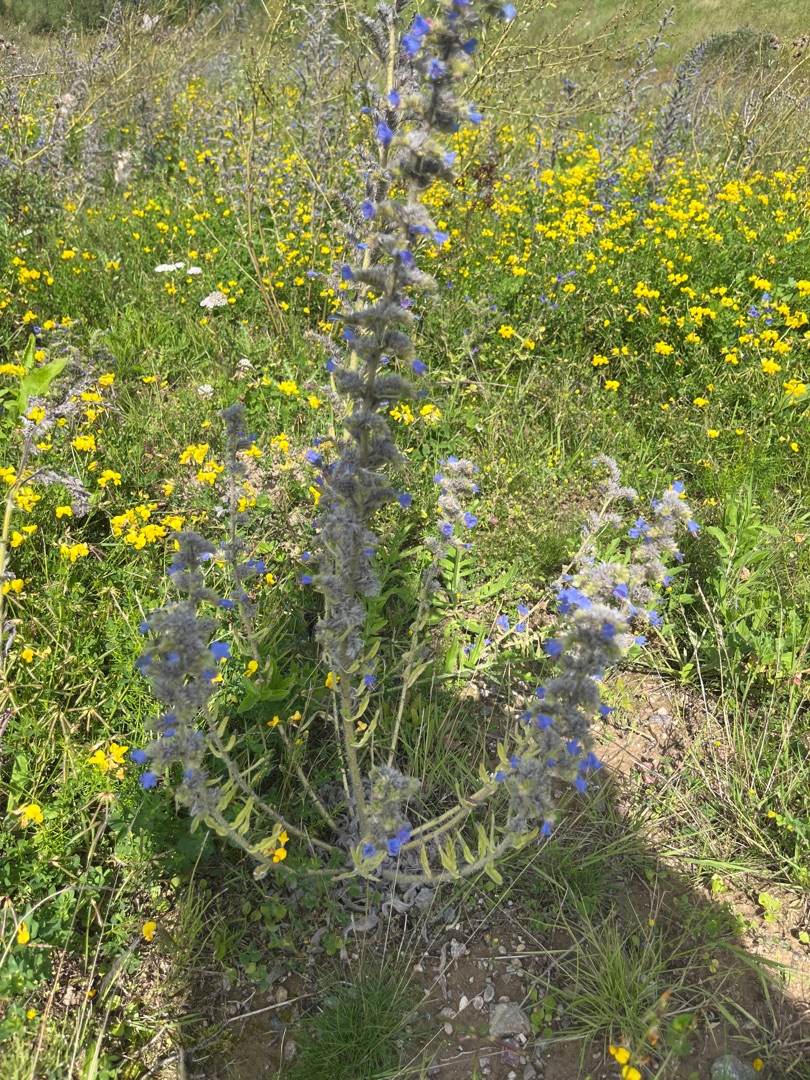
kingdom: Plantae
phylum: Tracheophyta
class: Magnoliopsida
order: Boraginales
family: Boraginaceae
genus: Echium
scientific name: Echium vulgare
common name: Slangehoved
